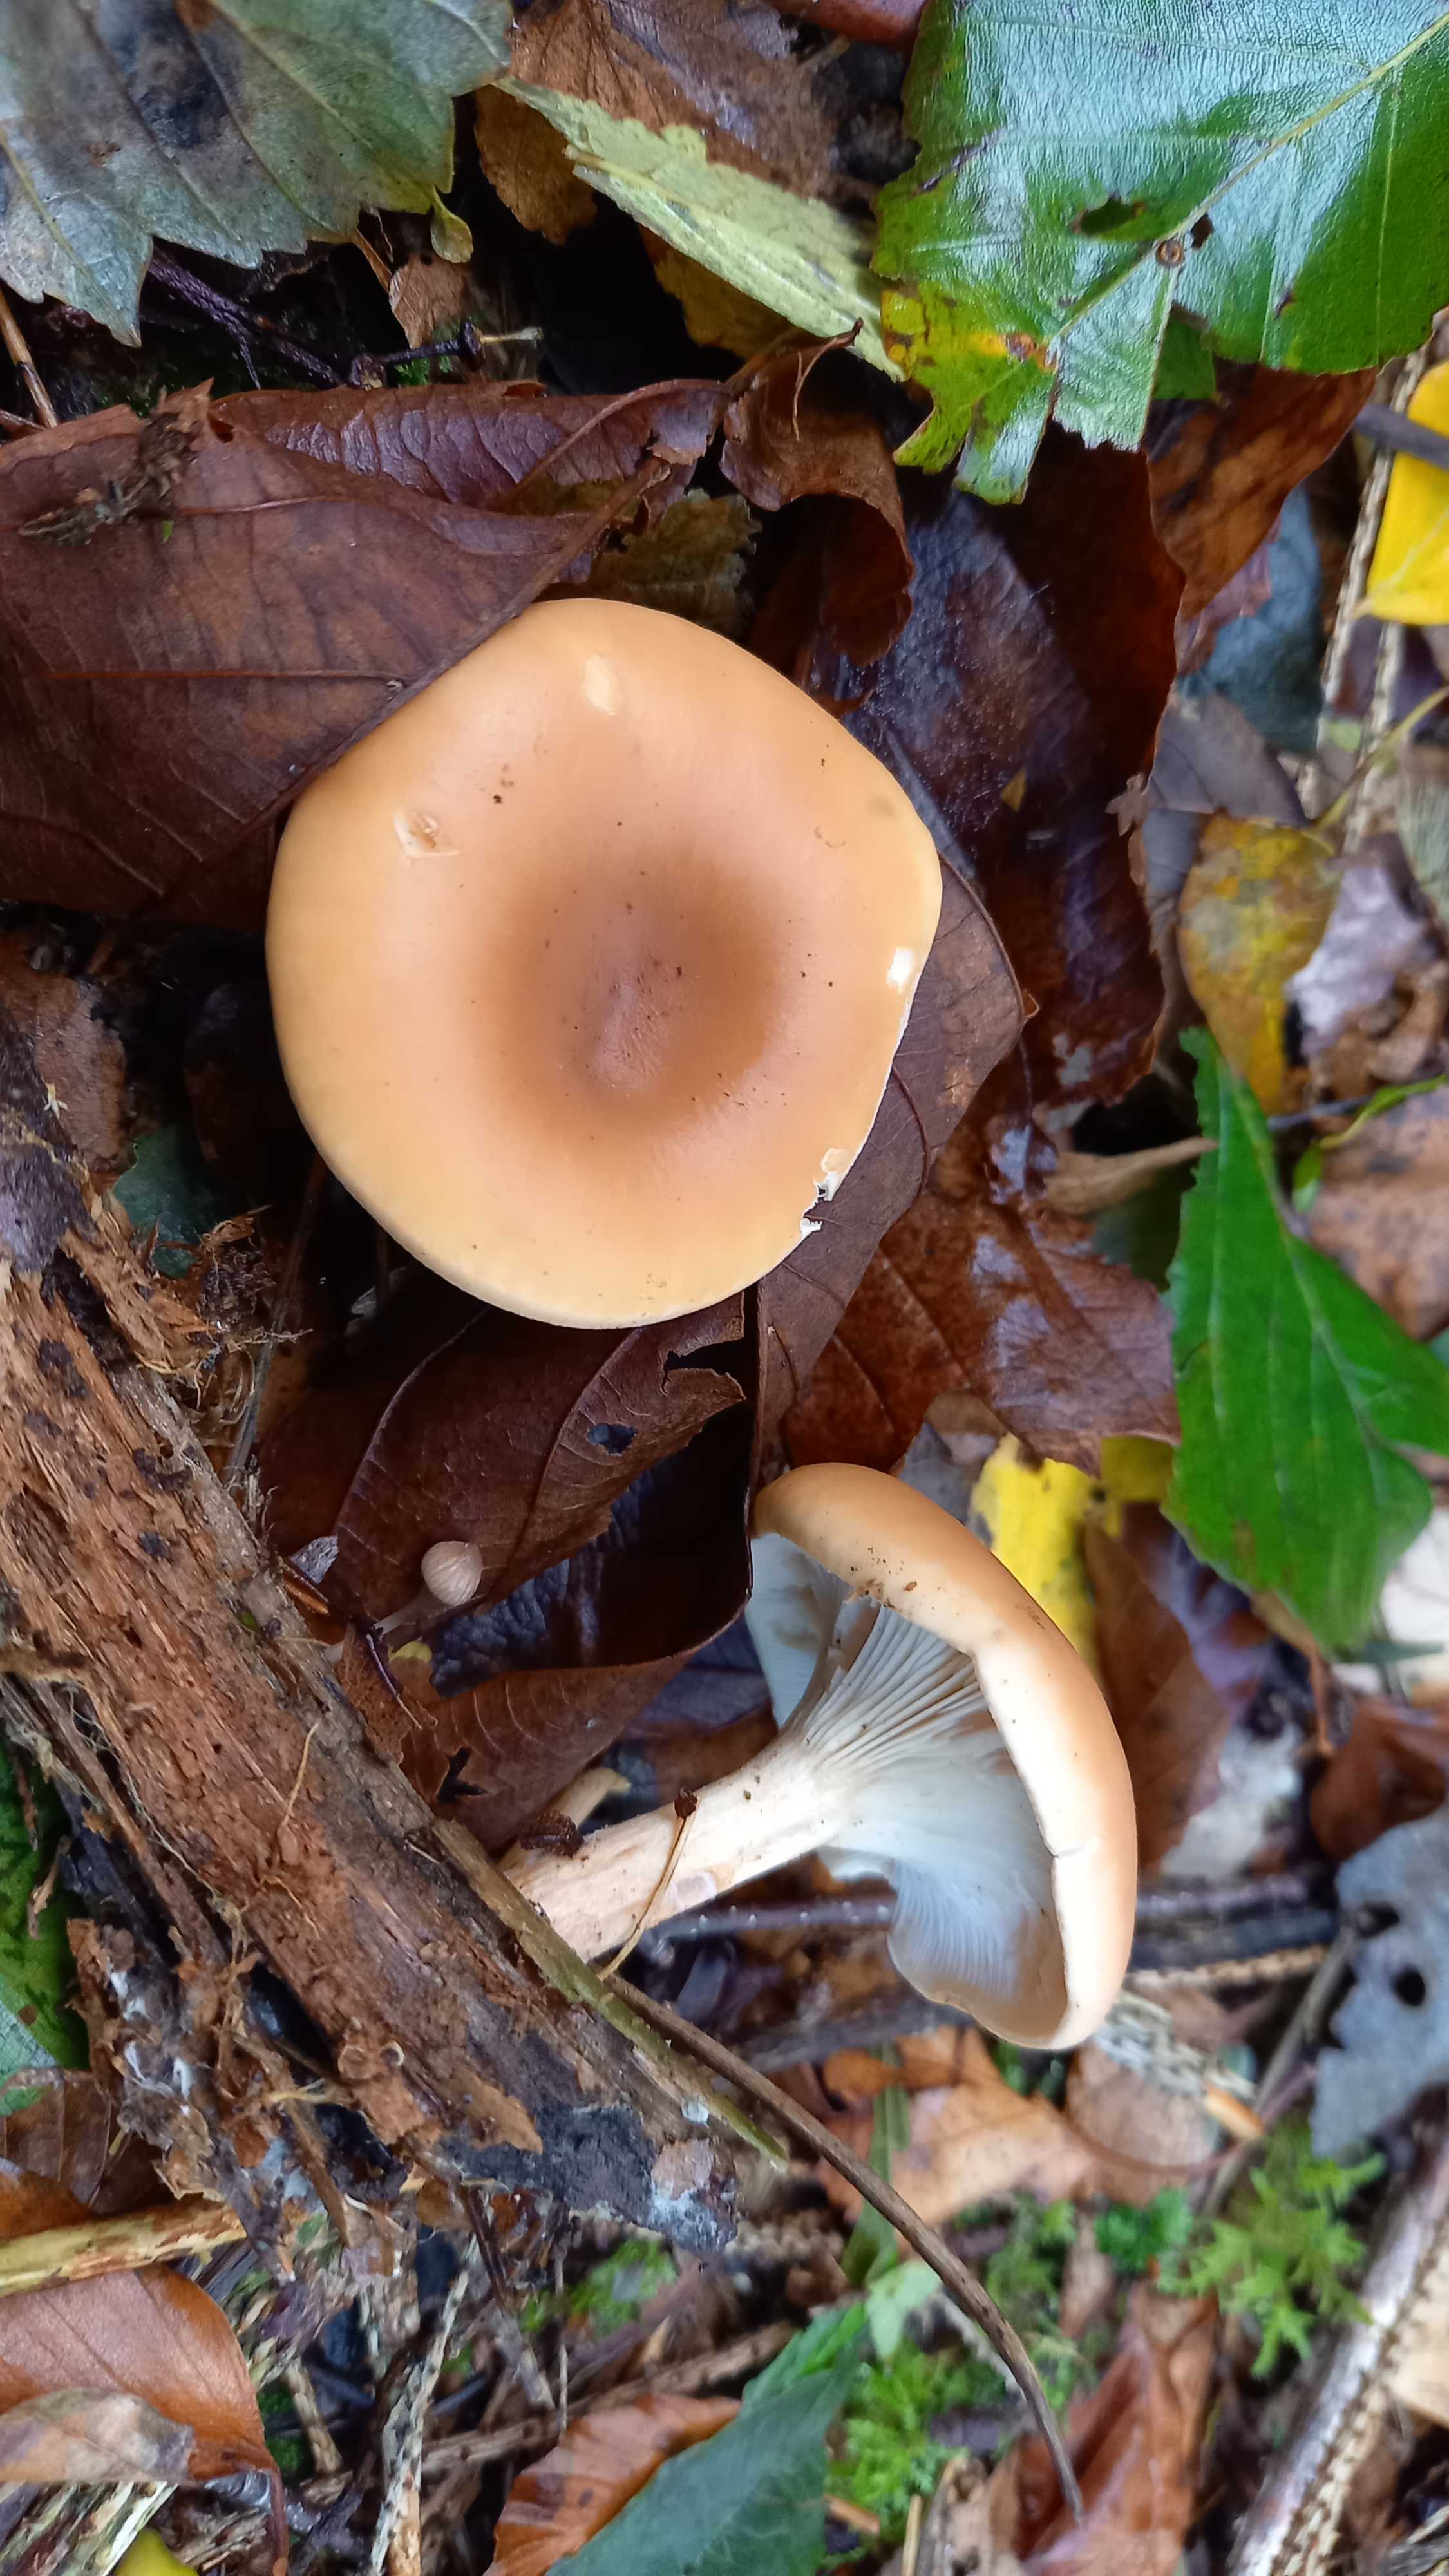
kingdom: Fungi
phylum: Basidiomycota
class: Agaricomycetes
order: Agaricales
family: Tricholomataceae
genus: Paralepista
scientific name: Paralepista flaccida
